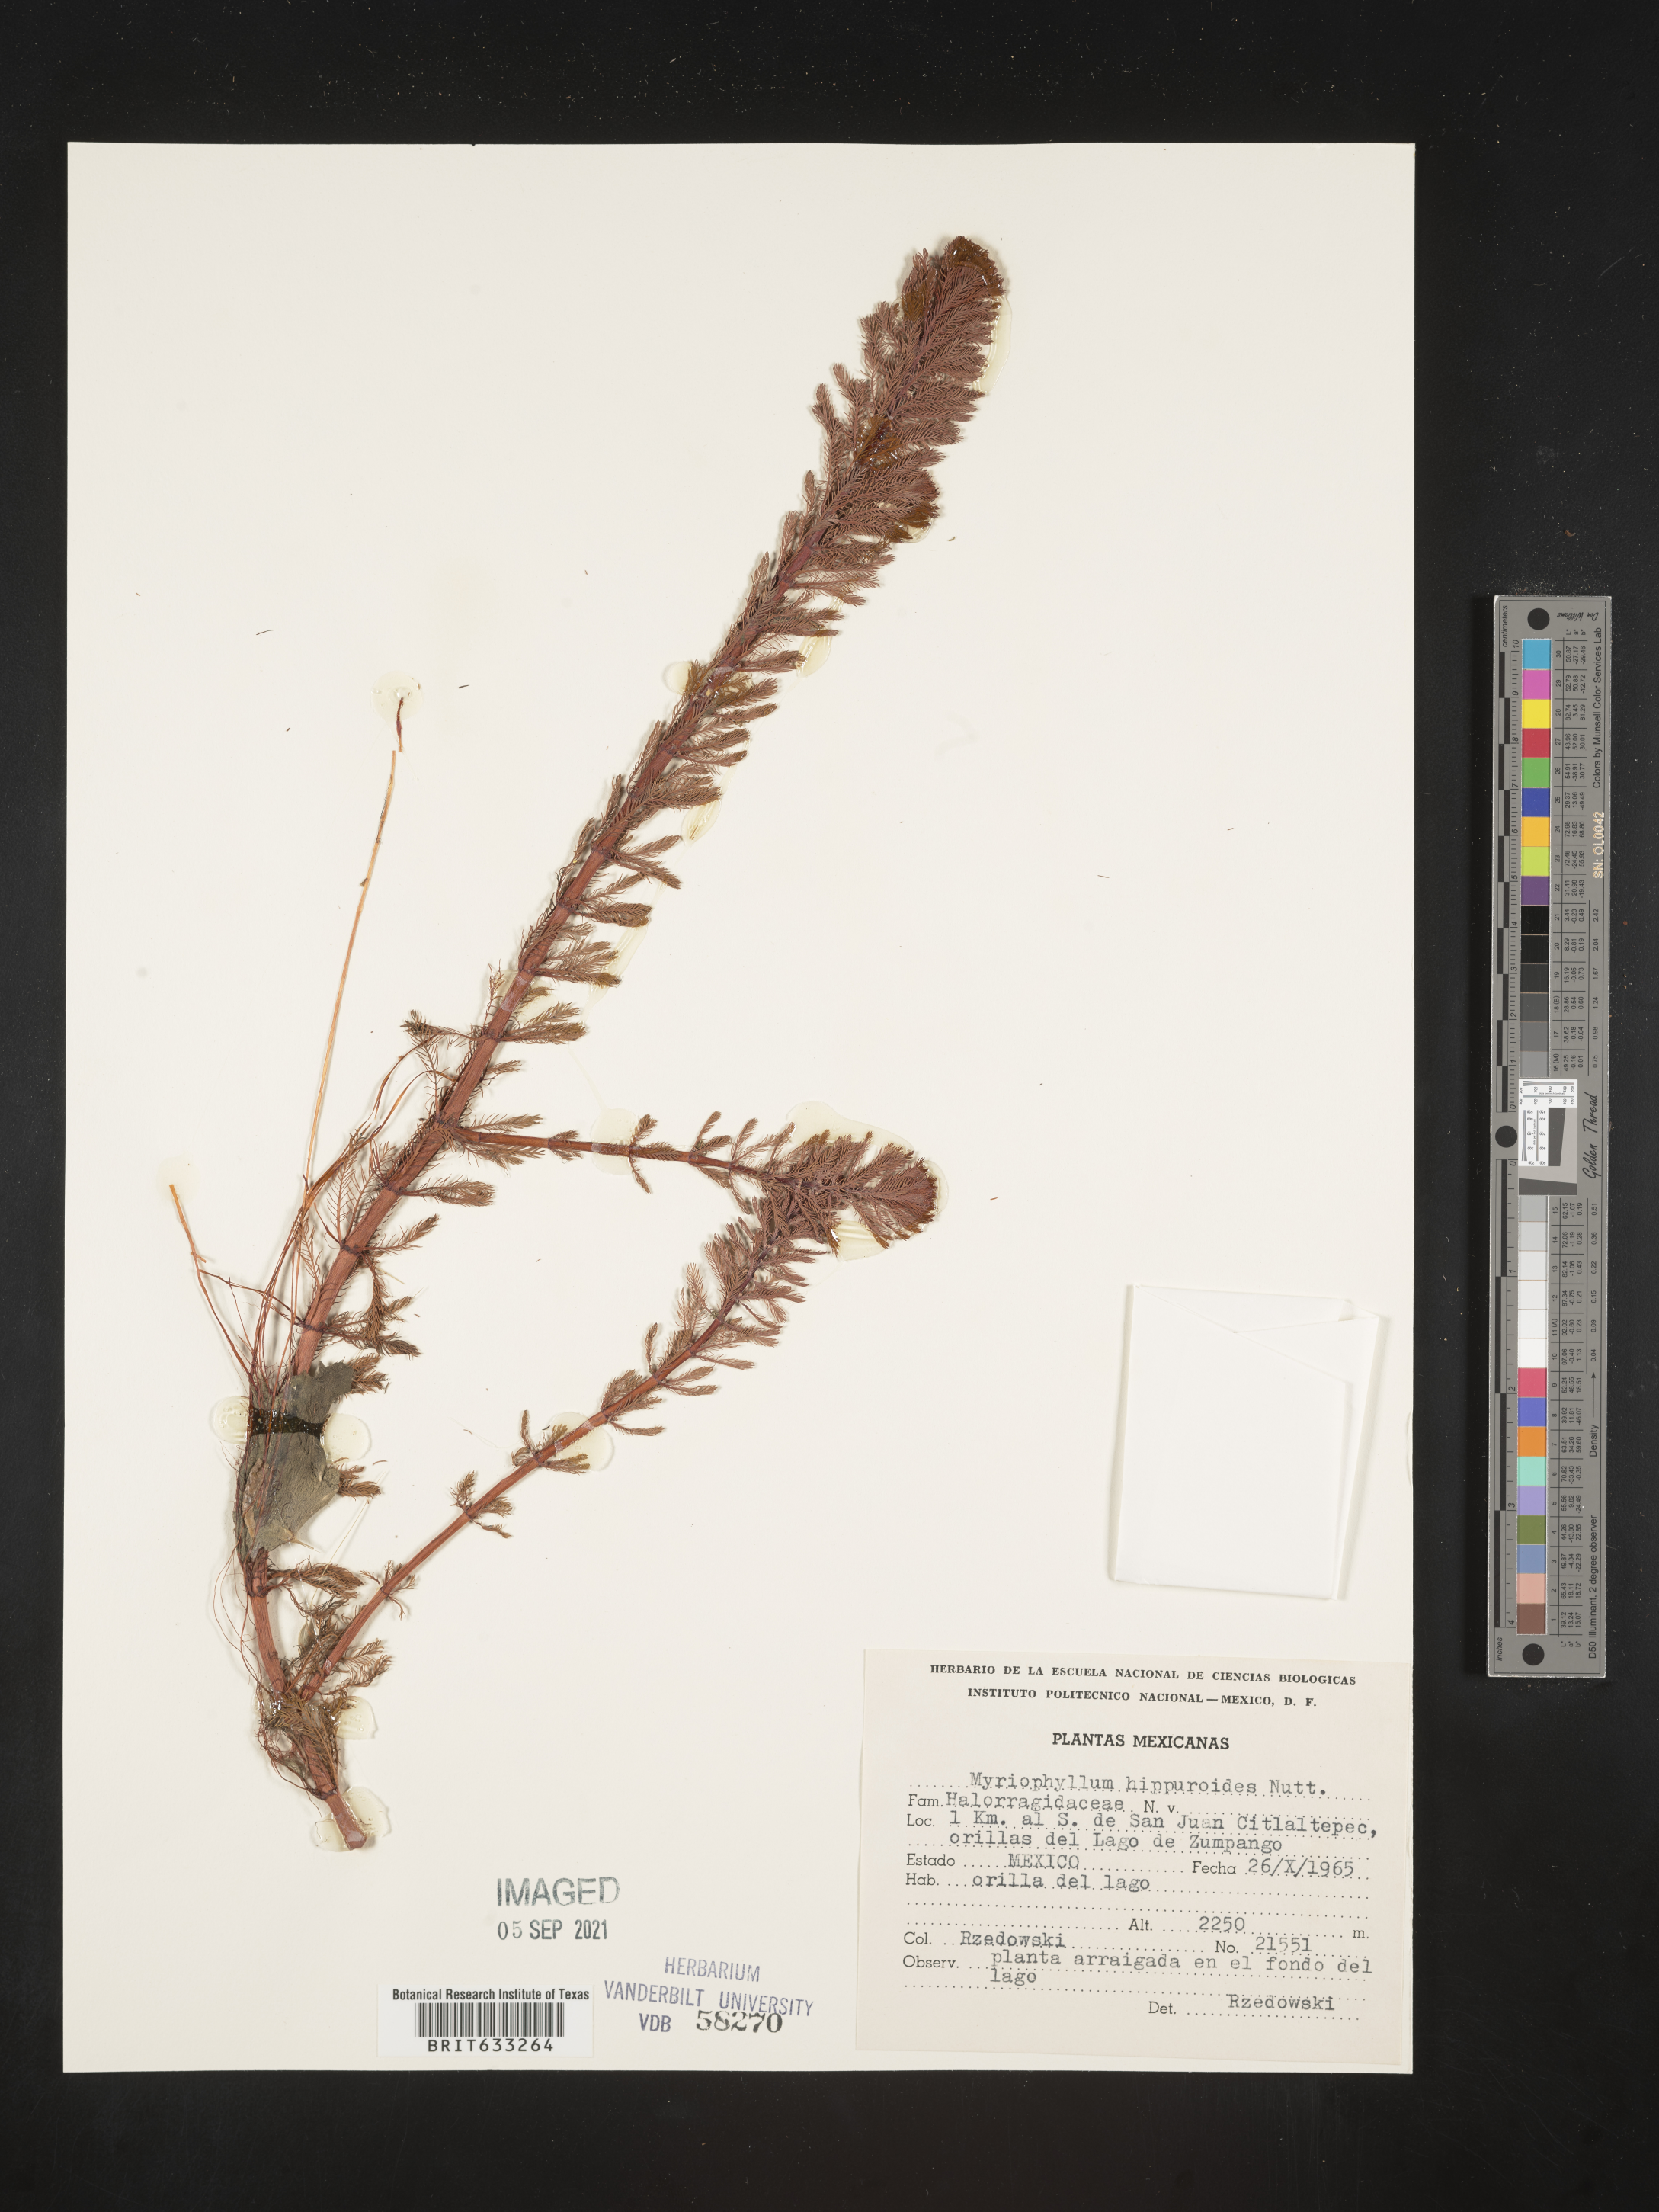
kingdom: Plantae
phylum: Tracheophyta
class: Magnoliopsida
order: Saxifragales
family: Haloragaceae
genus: Myriophyllum
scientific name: Myriophyllum
